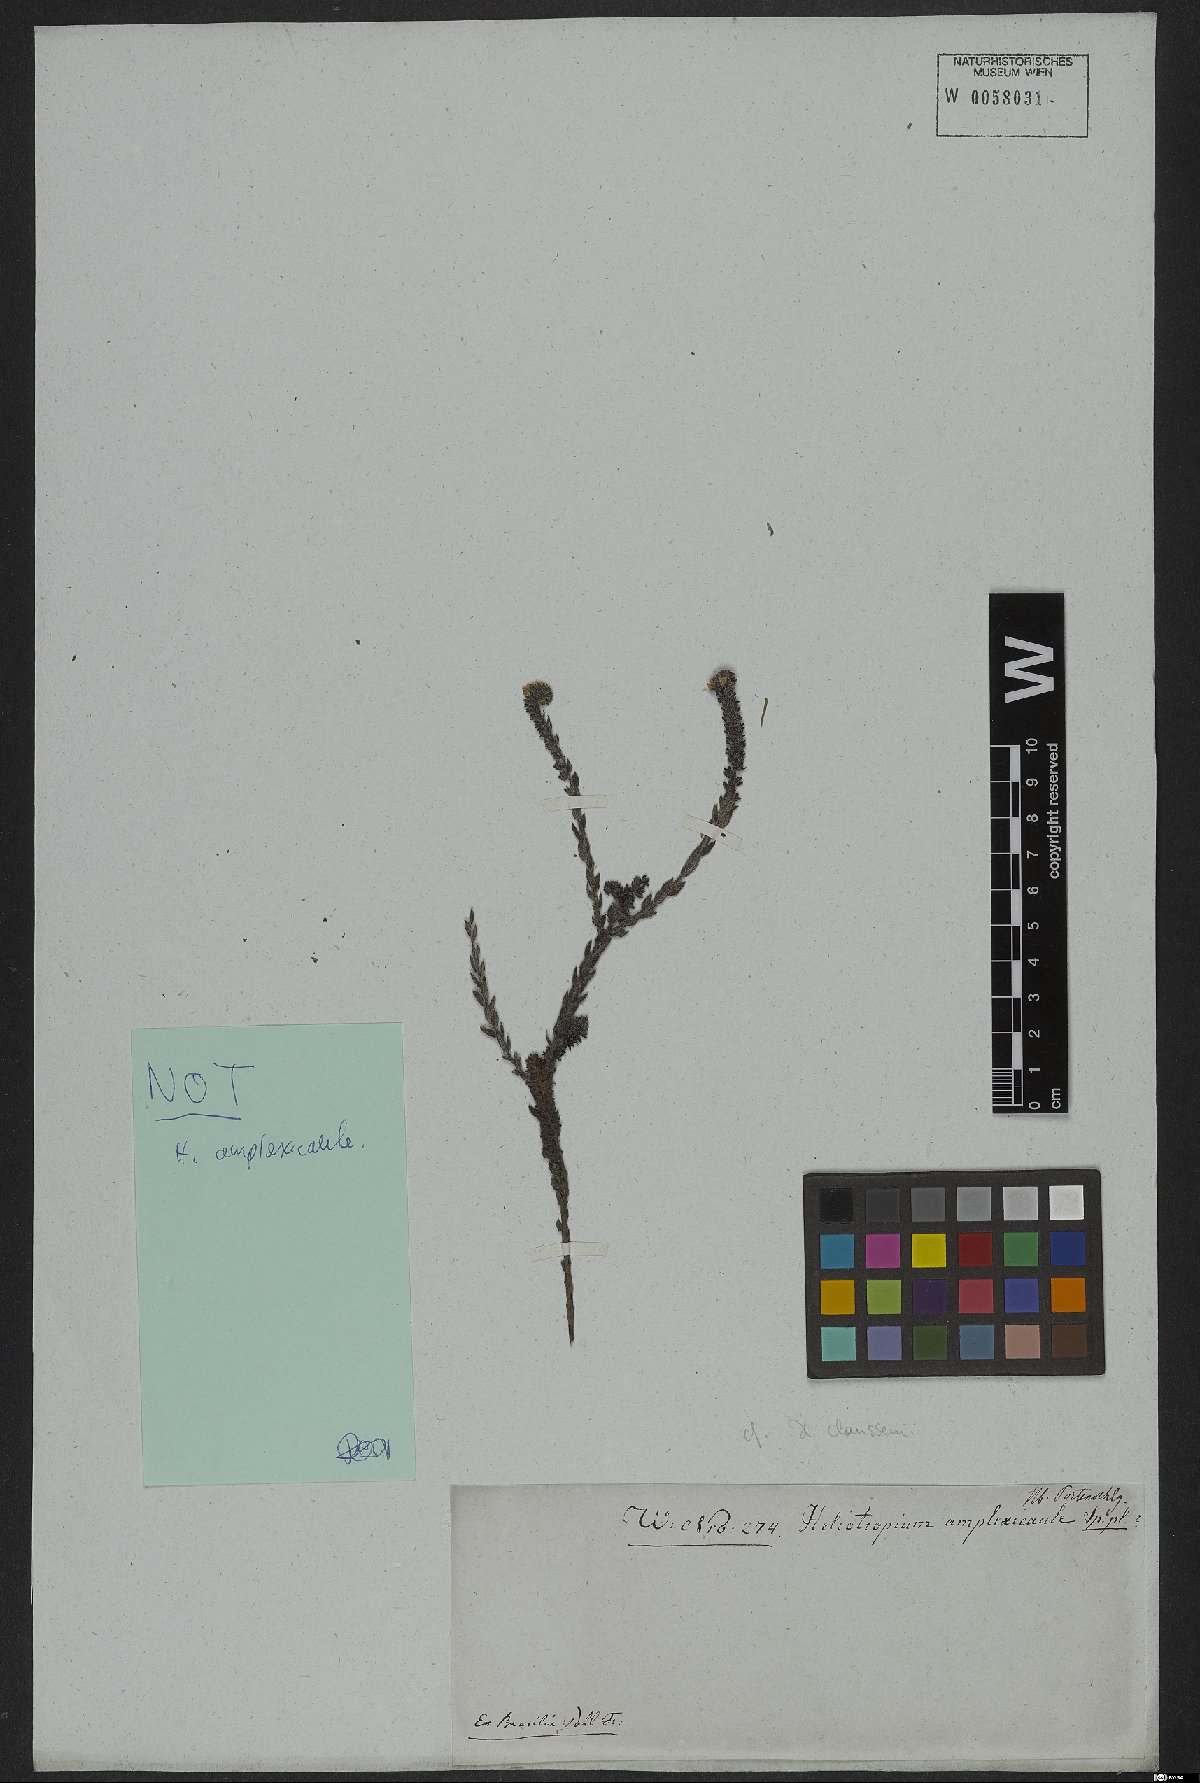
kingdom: Plantae
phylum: Tracheophyta
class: Magnoliopsida
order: Boraginales
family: Heliotropiaceae
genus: Heliotropium
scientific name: Heliotropium
